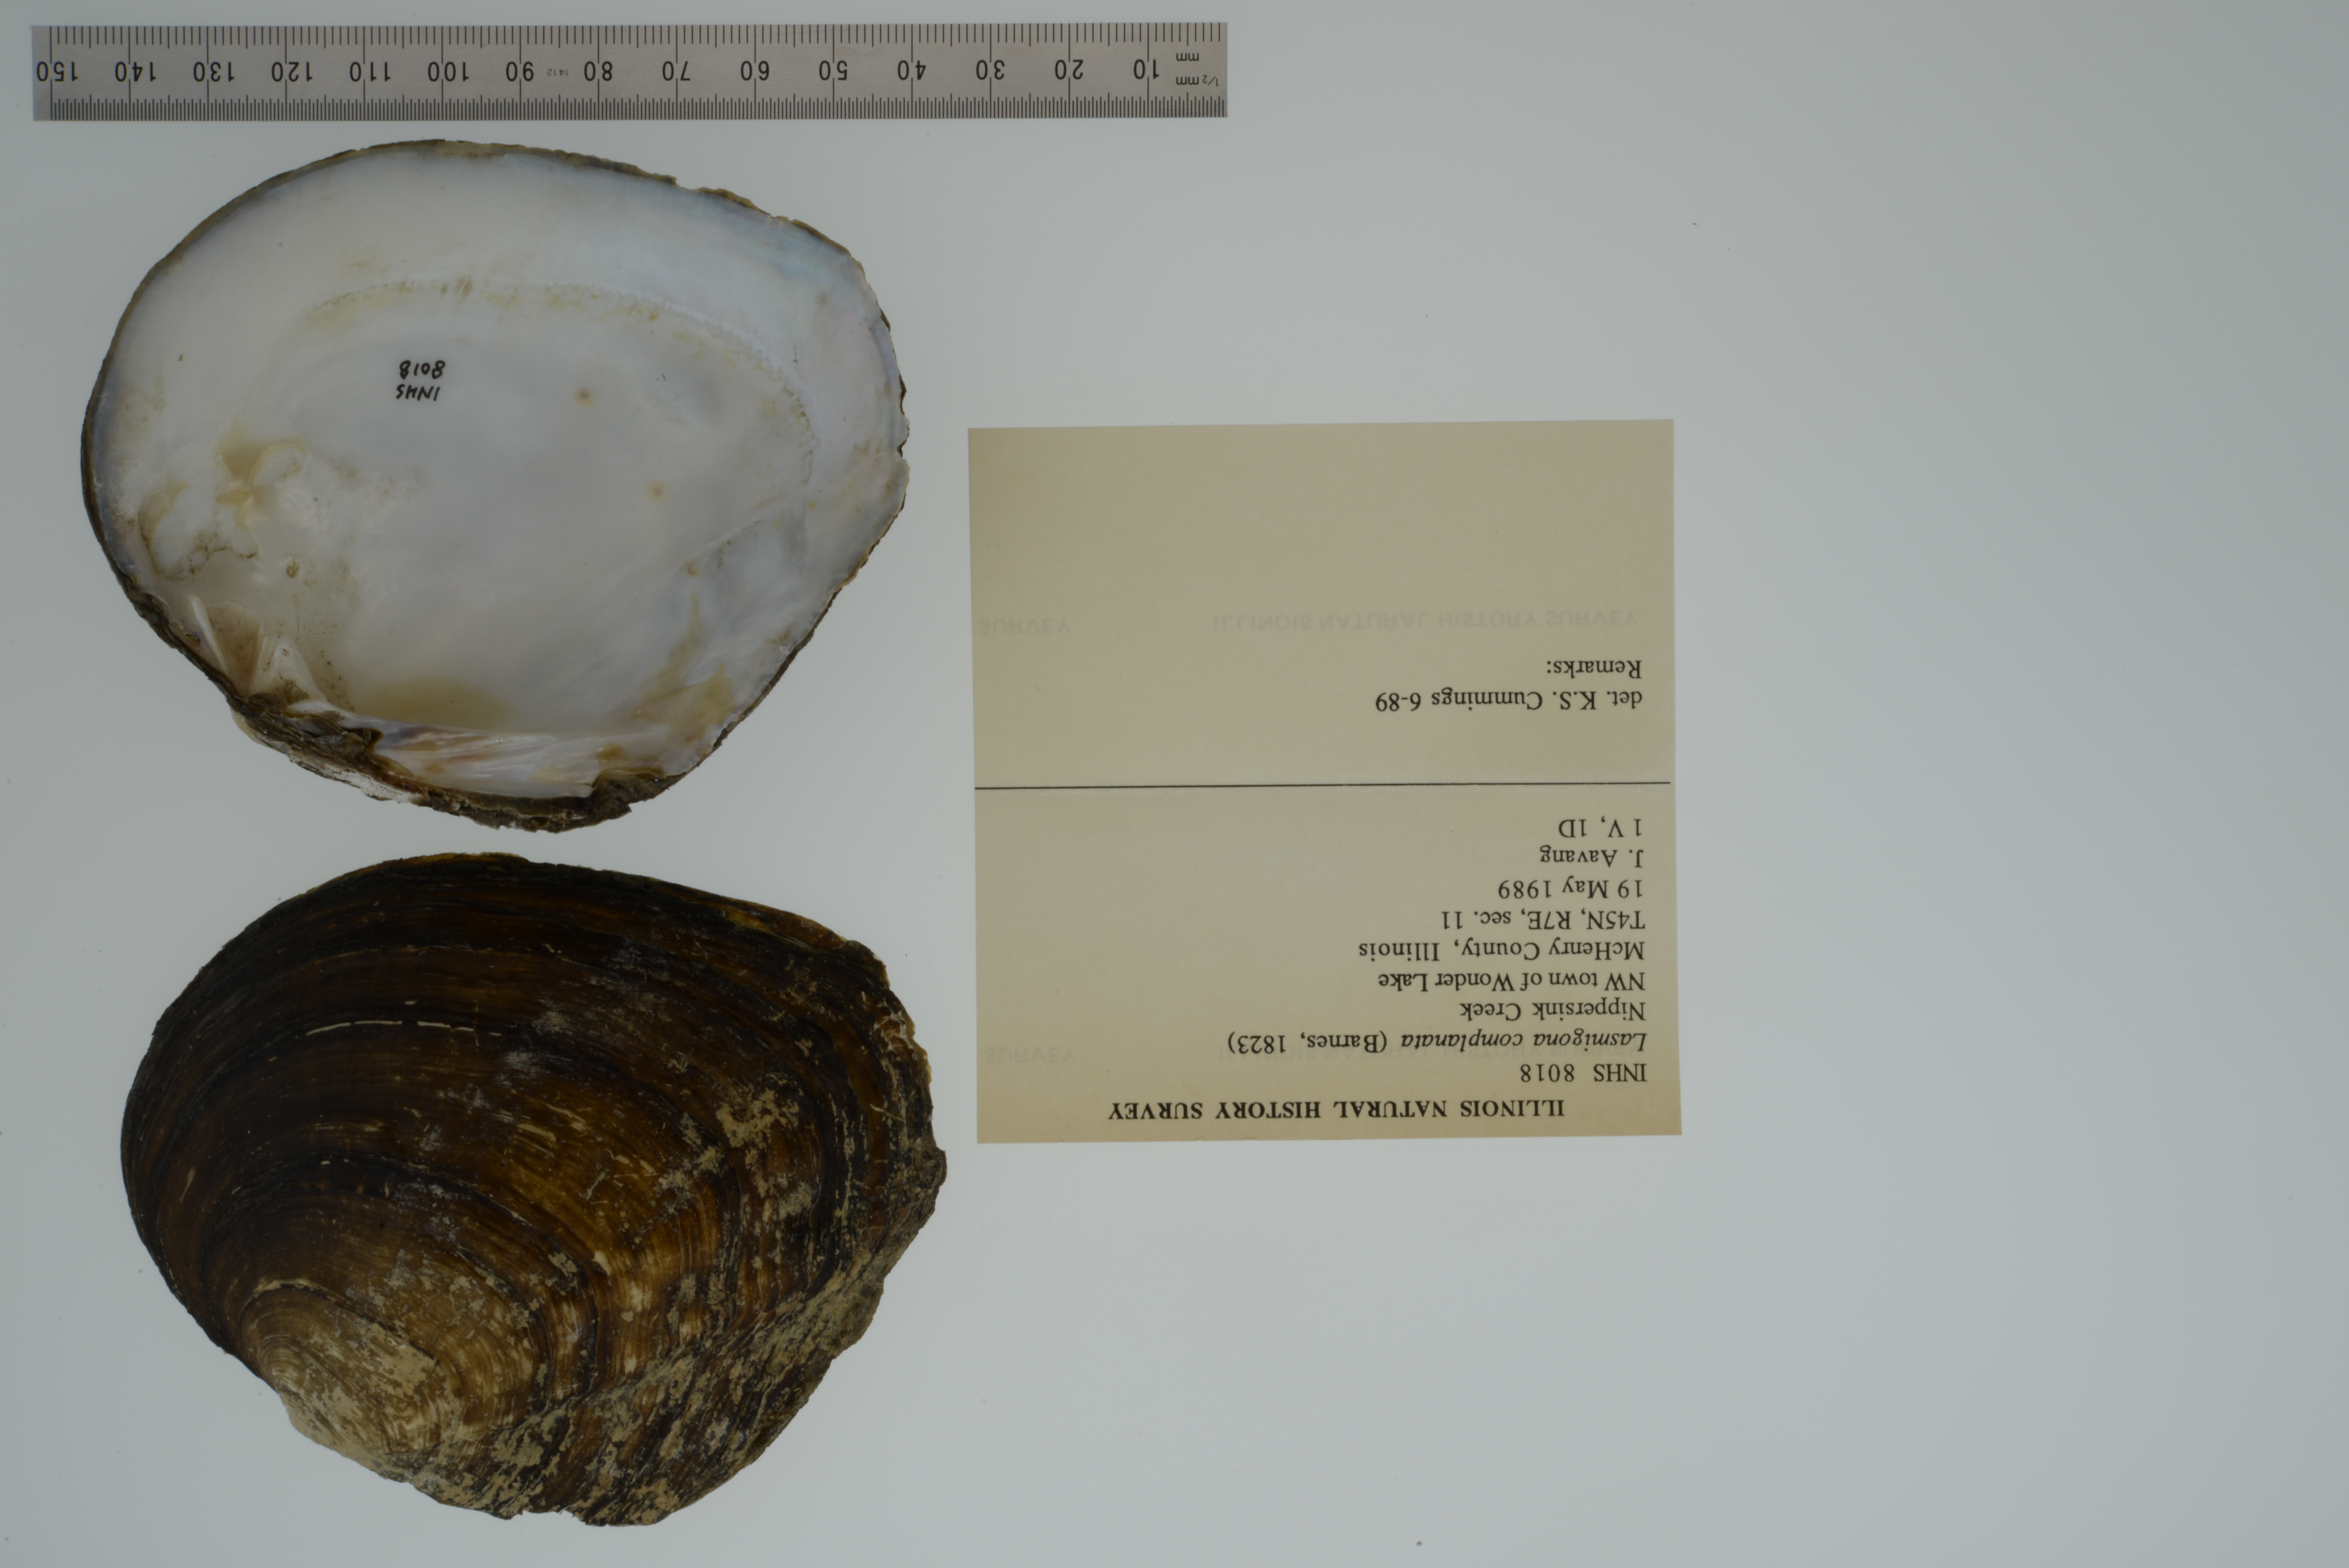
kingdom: Animalia
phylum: Mollusca
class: Bivalvia
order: Unionida
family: Unionidae
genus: Lasmigona
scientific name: Lasmigona complanata
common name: White heelsplitter
